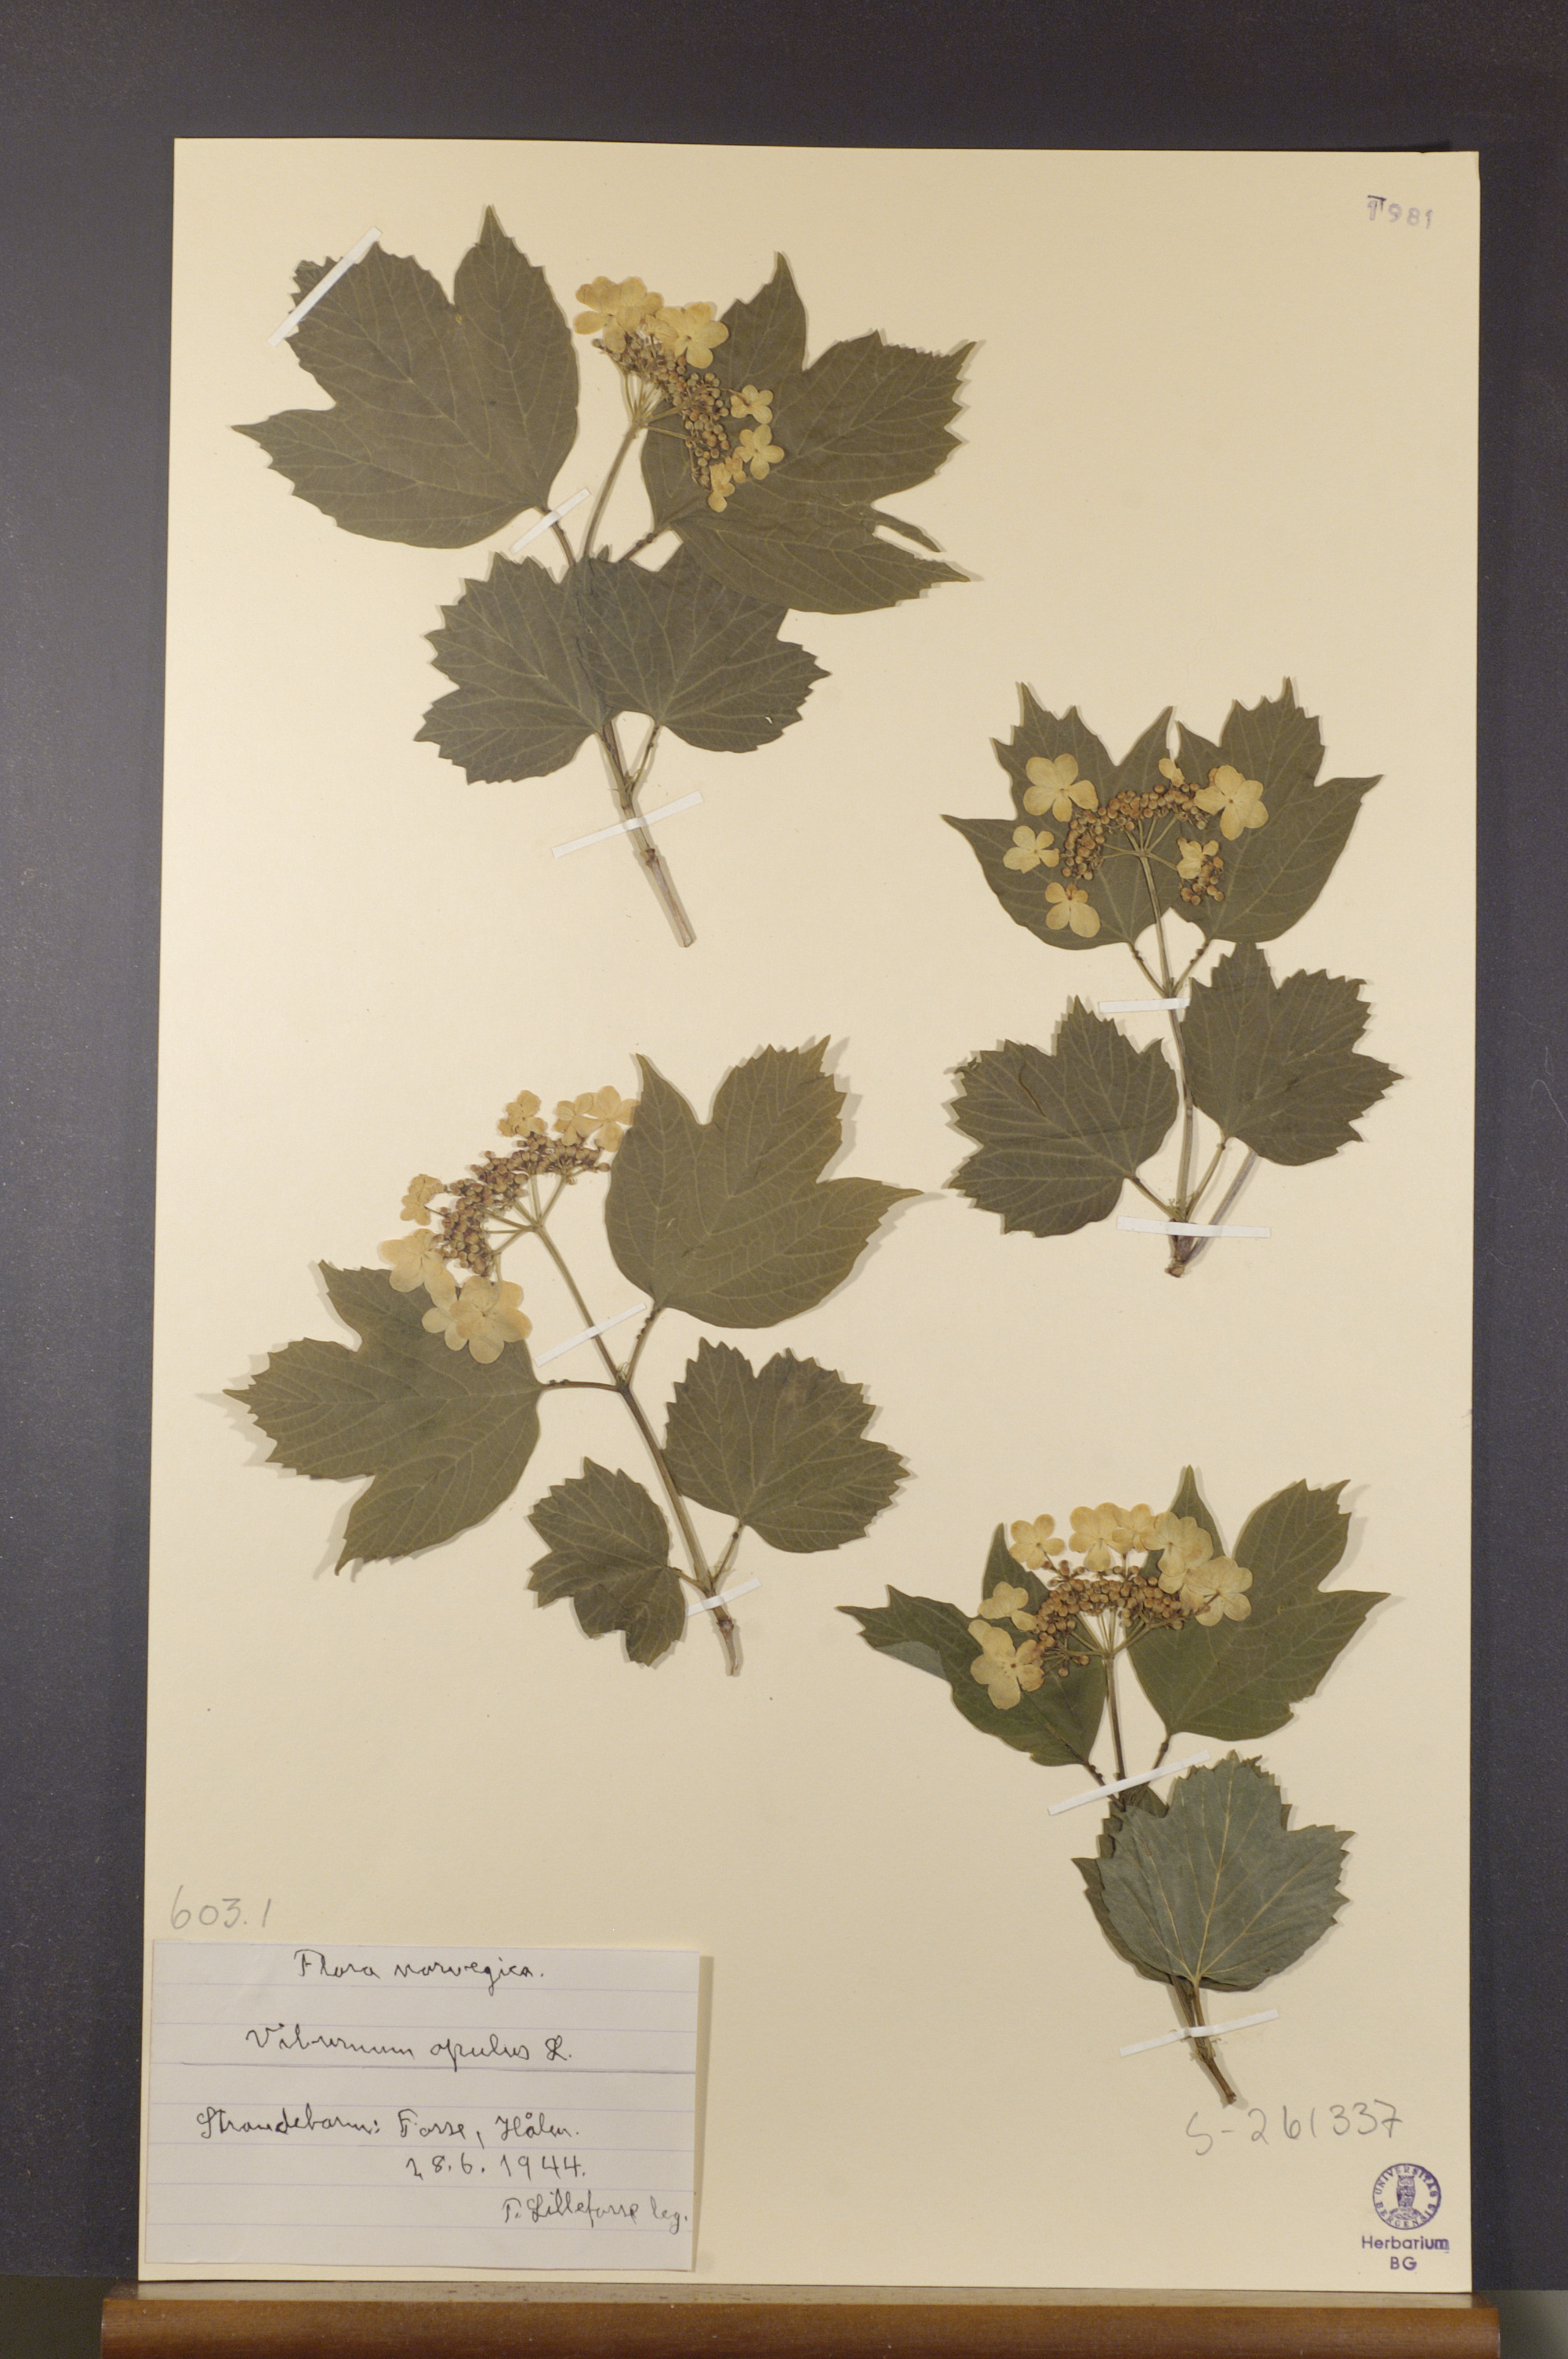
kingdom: Plantae
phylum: Tracheophyta
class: Magnoliopsida
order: Dipsacales
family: Viburnaceae
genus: Viburnum
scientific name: Viburnum opulus
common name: Guelder-rose
